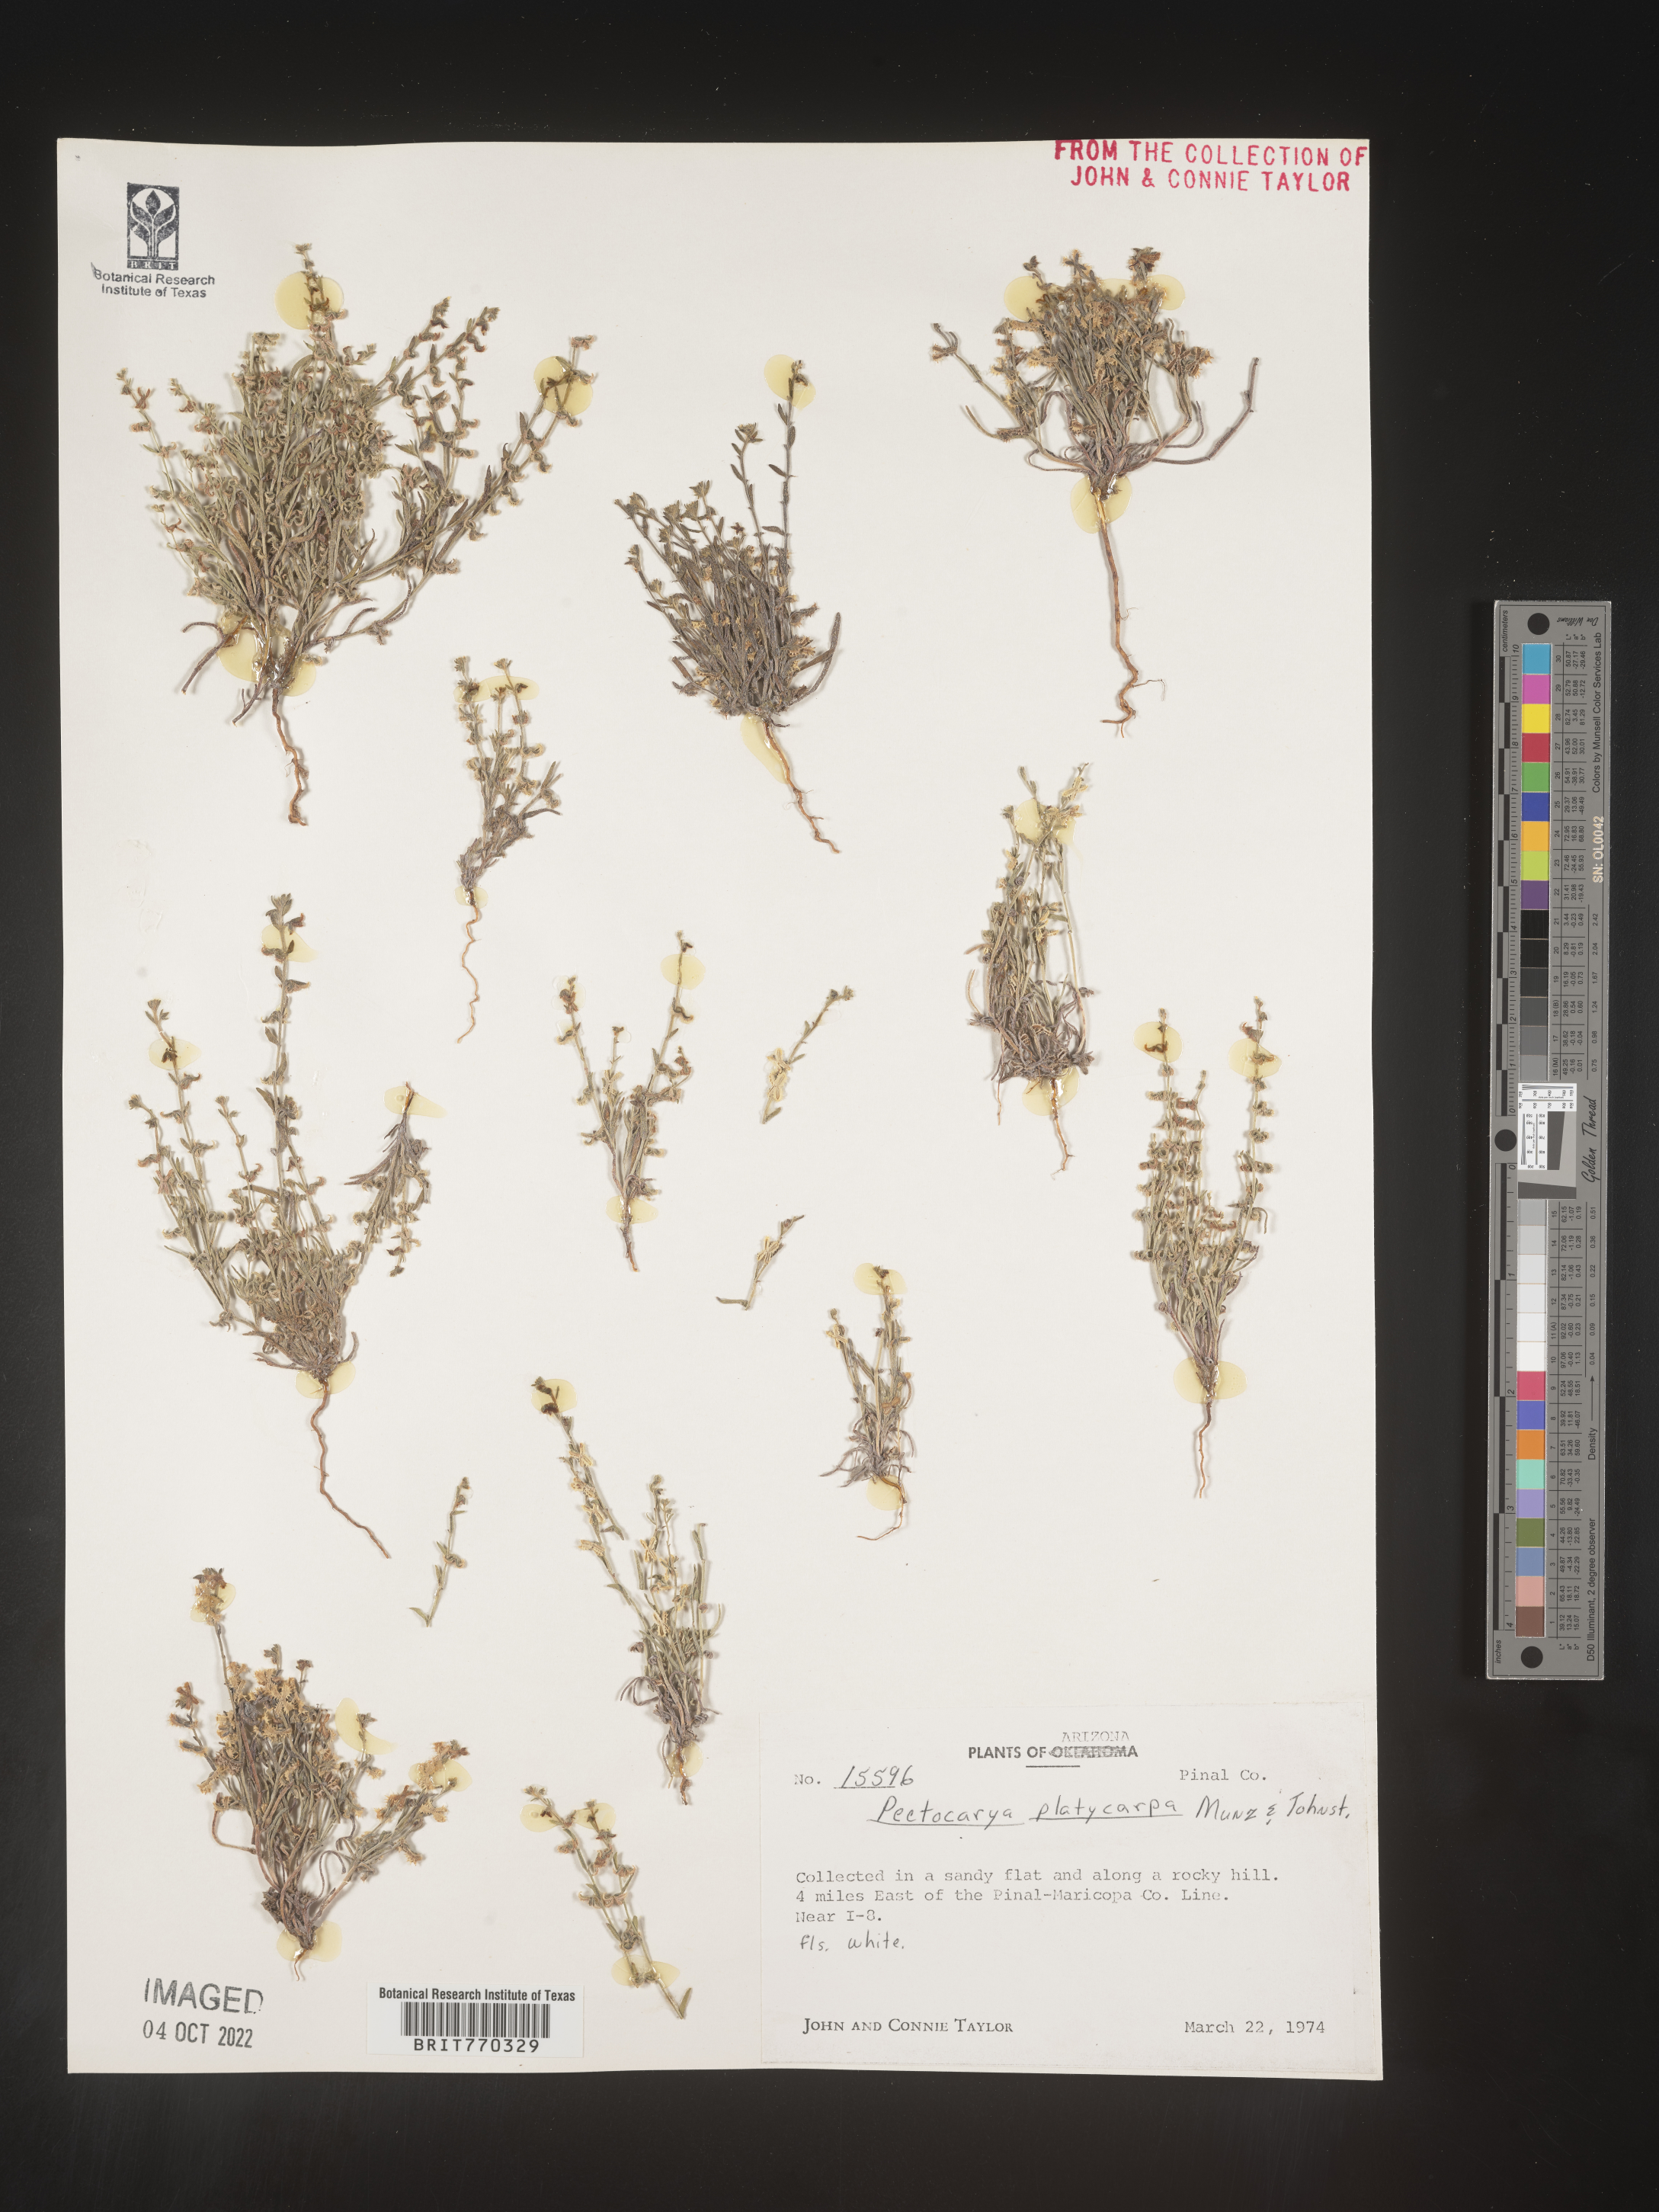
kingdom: Plantae
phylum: Tracheophyta
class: Magnoliopsida
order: Boraginales
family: Boraginaceae
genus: Pectocarya
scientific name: Pectocarya
